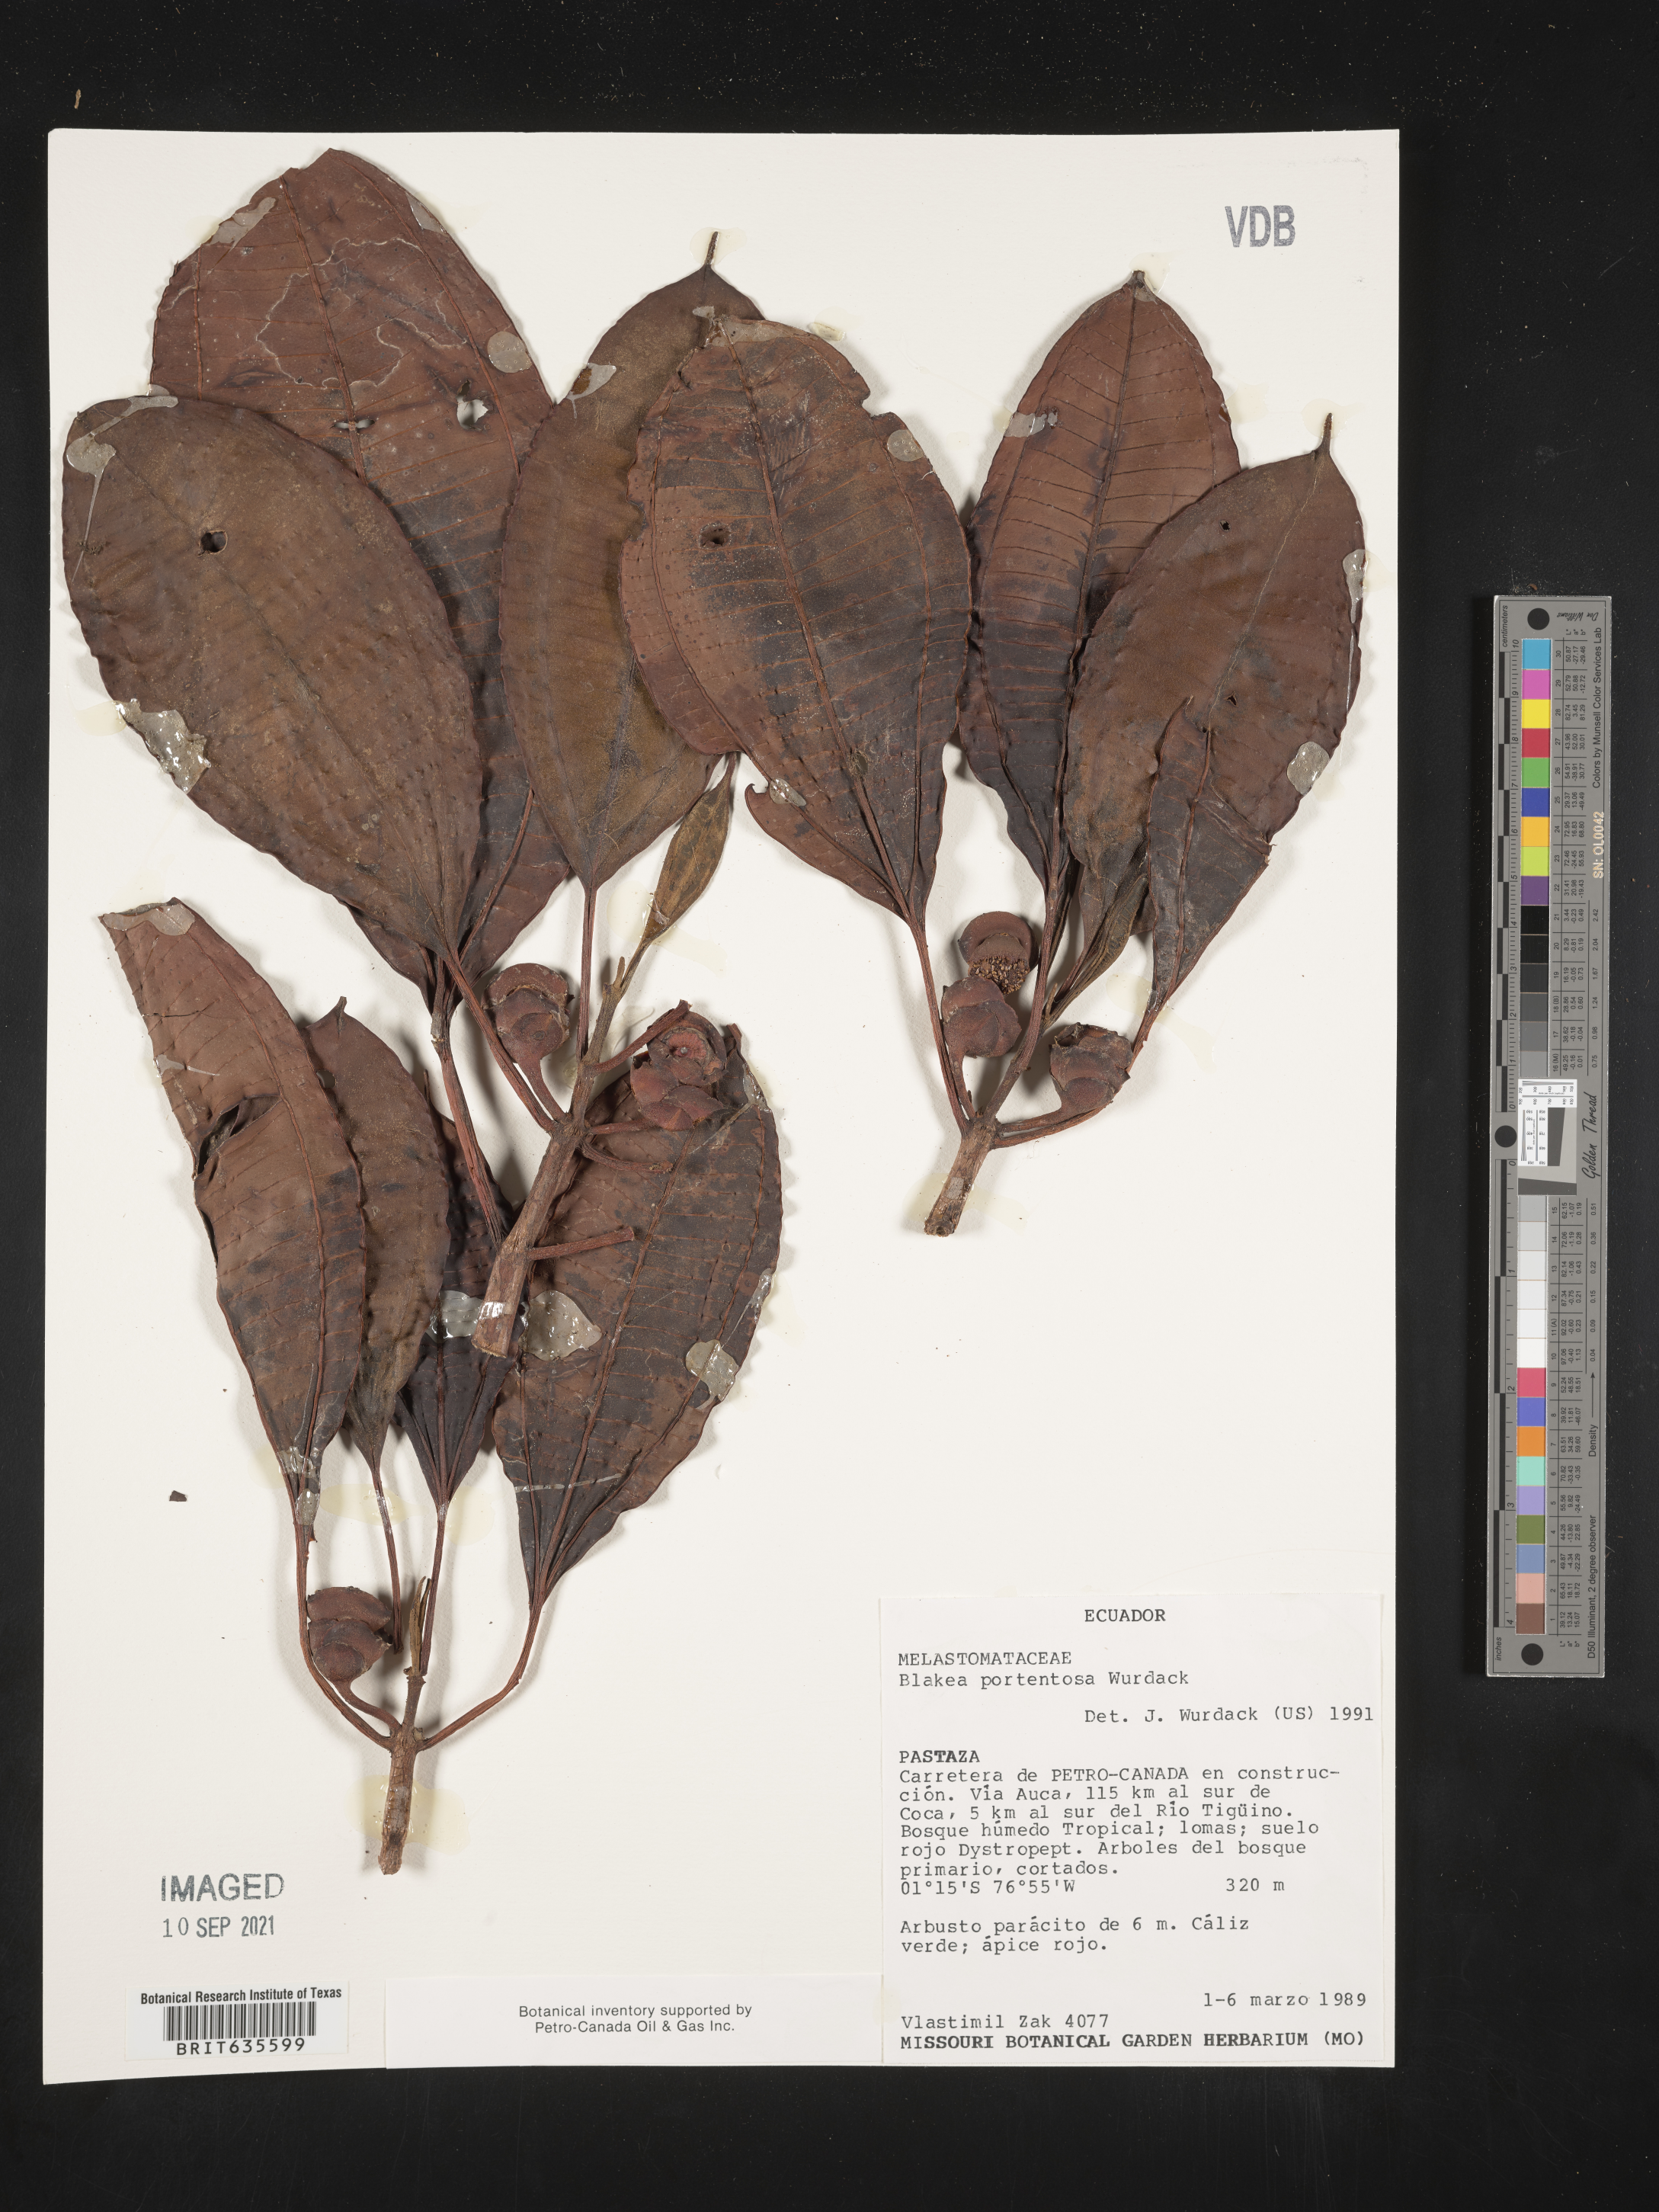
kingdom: Plantae
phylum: Tracheophyta
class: Magnoliopsida
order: Myrtales
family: Melastomataceae
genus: Blakea
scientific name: Blakea
